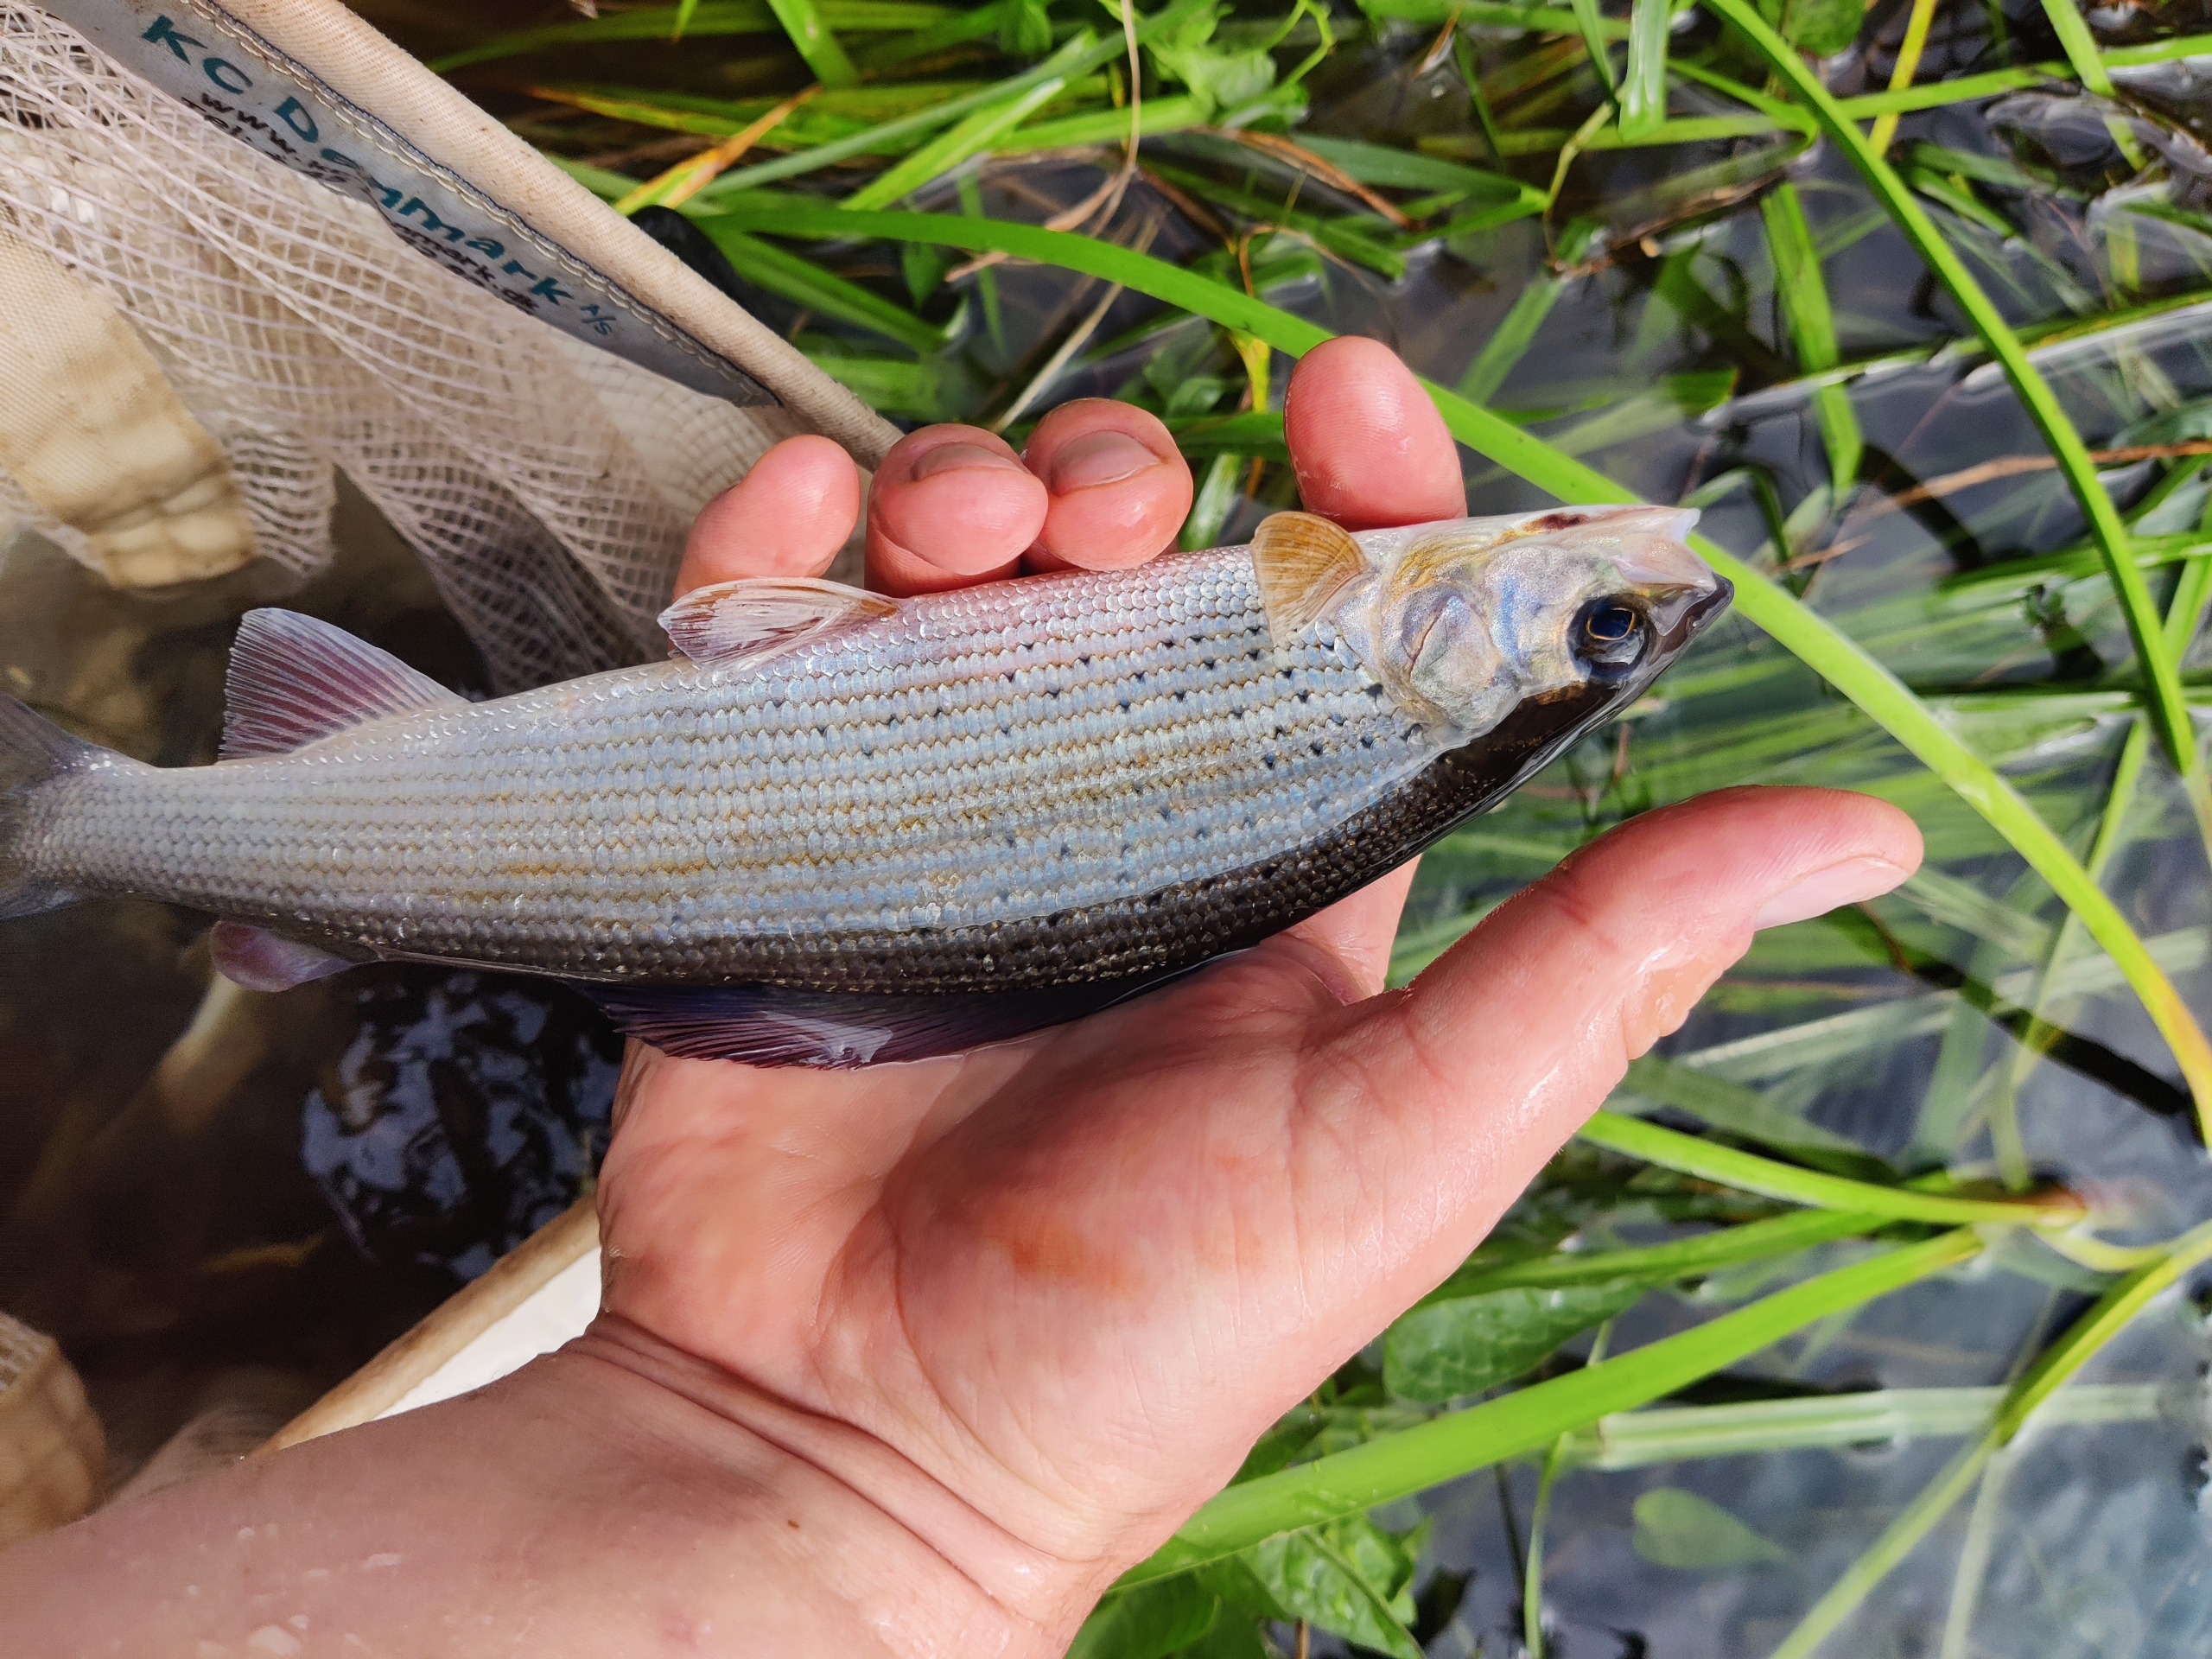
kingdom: Animalia
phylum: Chordata
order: Salmoniformes
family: Salmonidae
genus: Thymallus
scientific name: Thymallus thymallus
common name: Stalling
